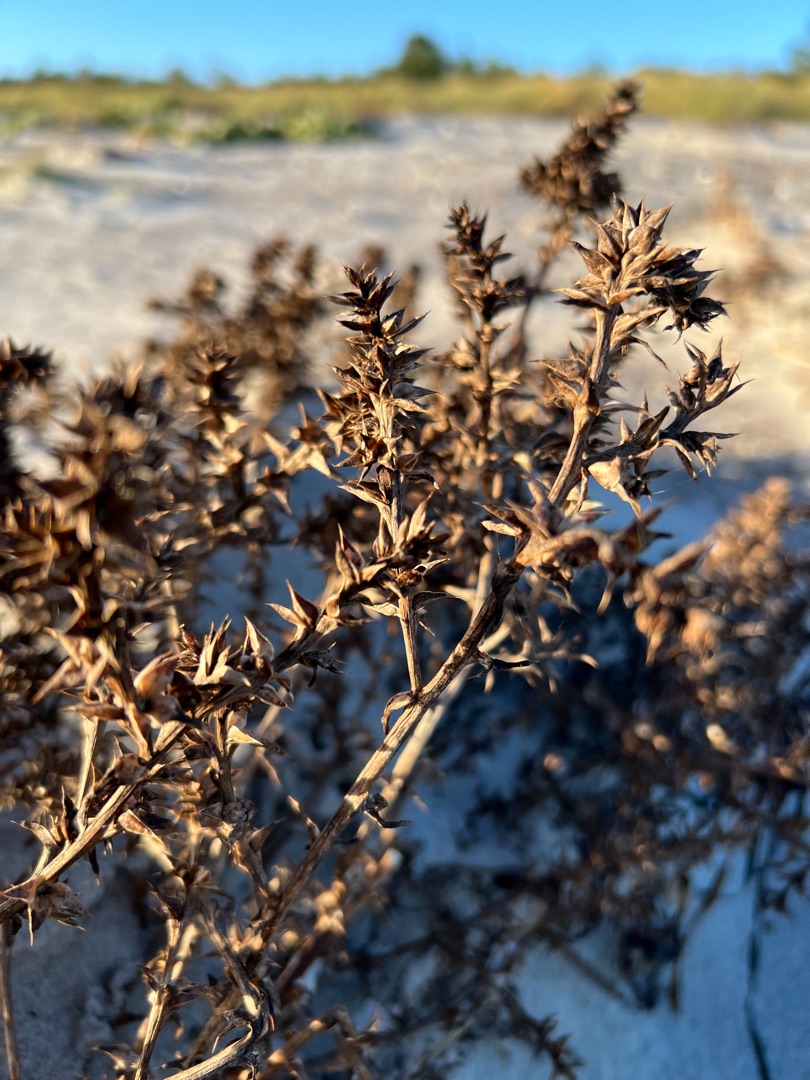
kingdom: Plantae
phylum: Tracheophyta
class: Magnoliopsida
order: Caryophyllales
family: Amaranthaceae
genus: Salsola
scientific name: Salsola kali
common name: Sodaurt
